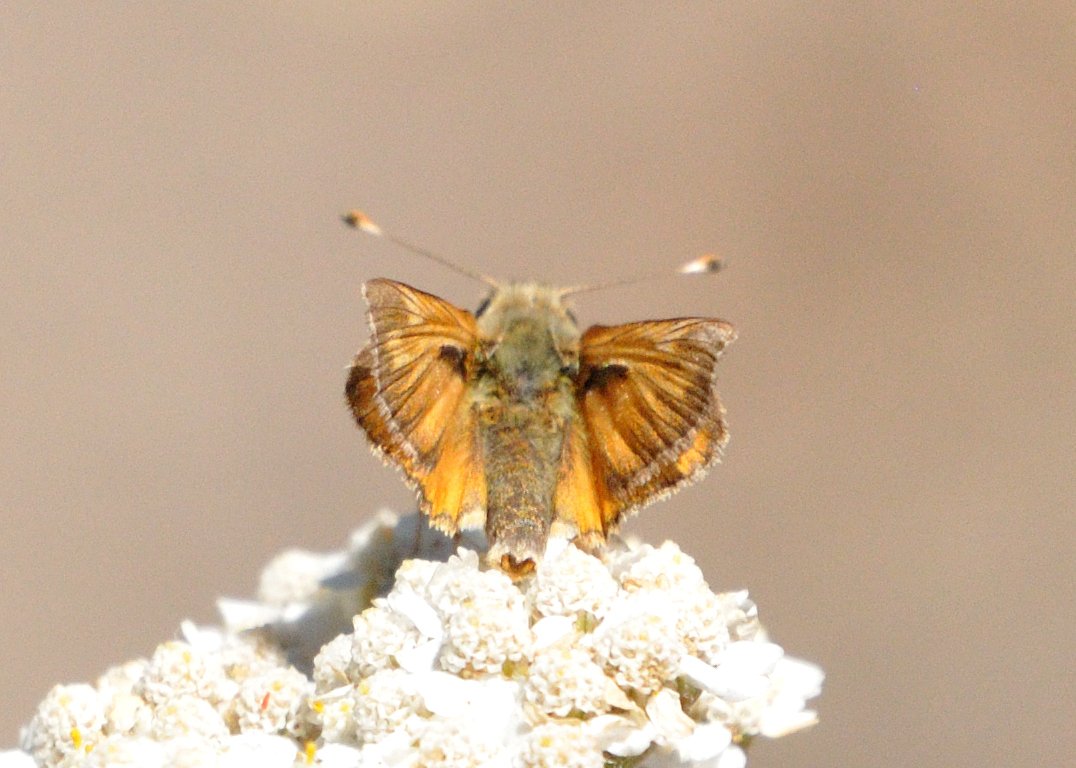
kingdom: Animalia
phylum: Arthropoda
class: Insecta
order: Lepidoptera
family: Hesperiidae
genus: Hesperia
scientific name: Hesperia lindseyi
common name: Lindsey's Skipper
